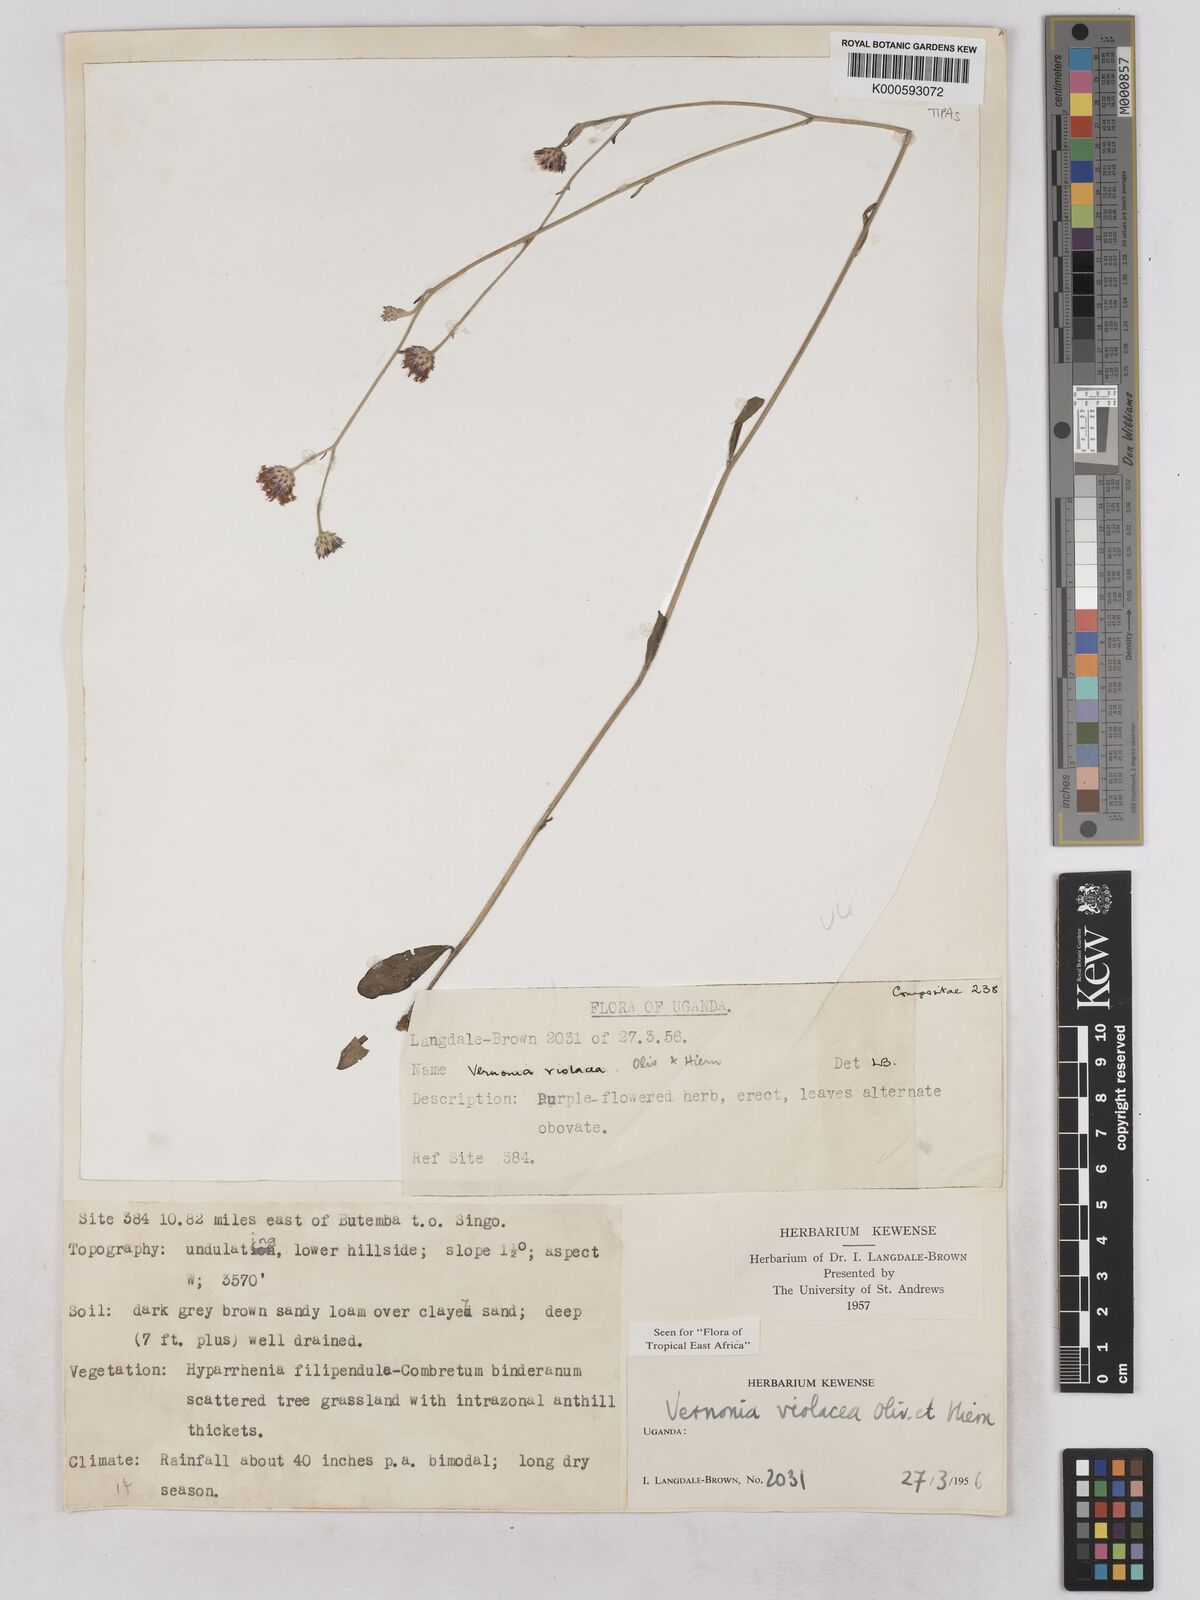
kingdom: Plantae
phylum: Tracheophyta
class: Magnoliopsida
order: Asterales
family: Asteraceae
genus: Vernonia
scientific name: Vernonia violacea
